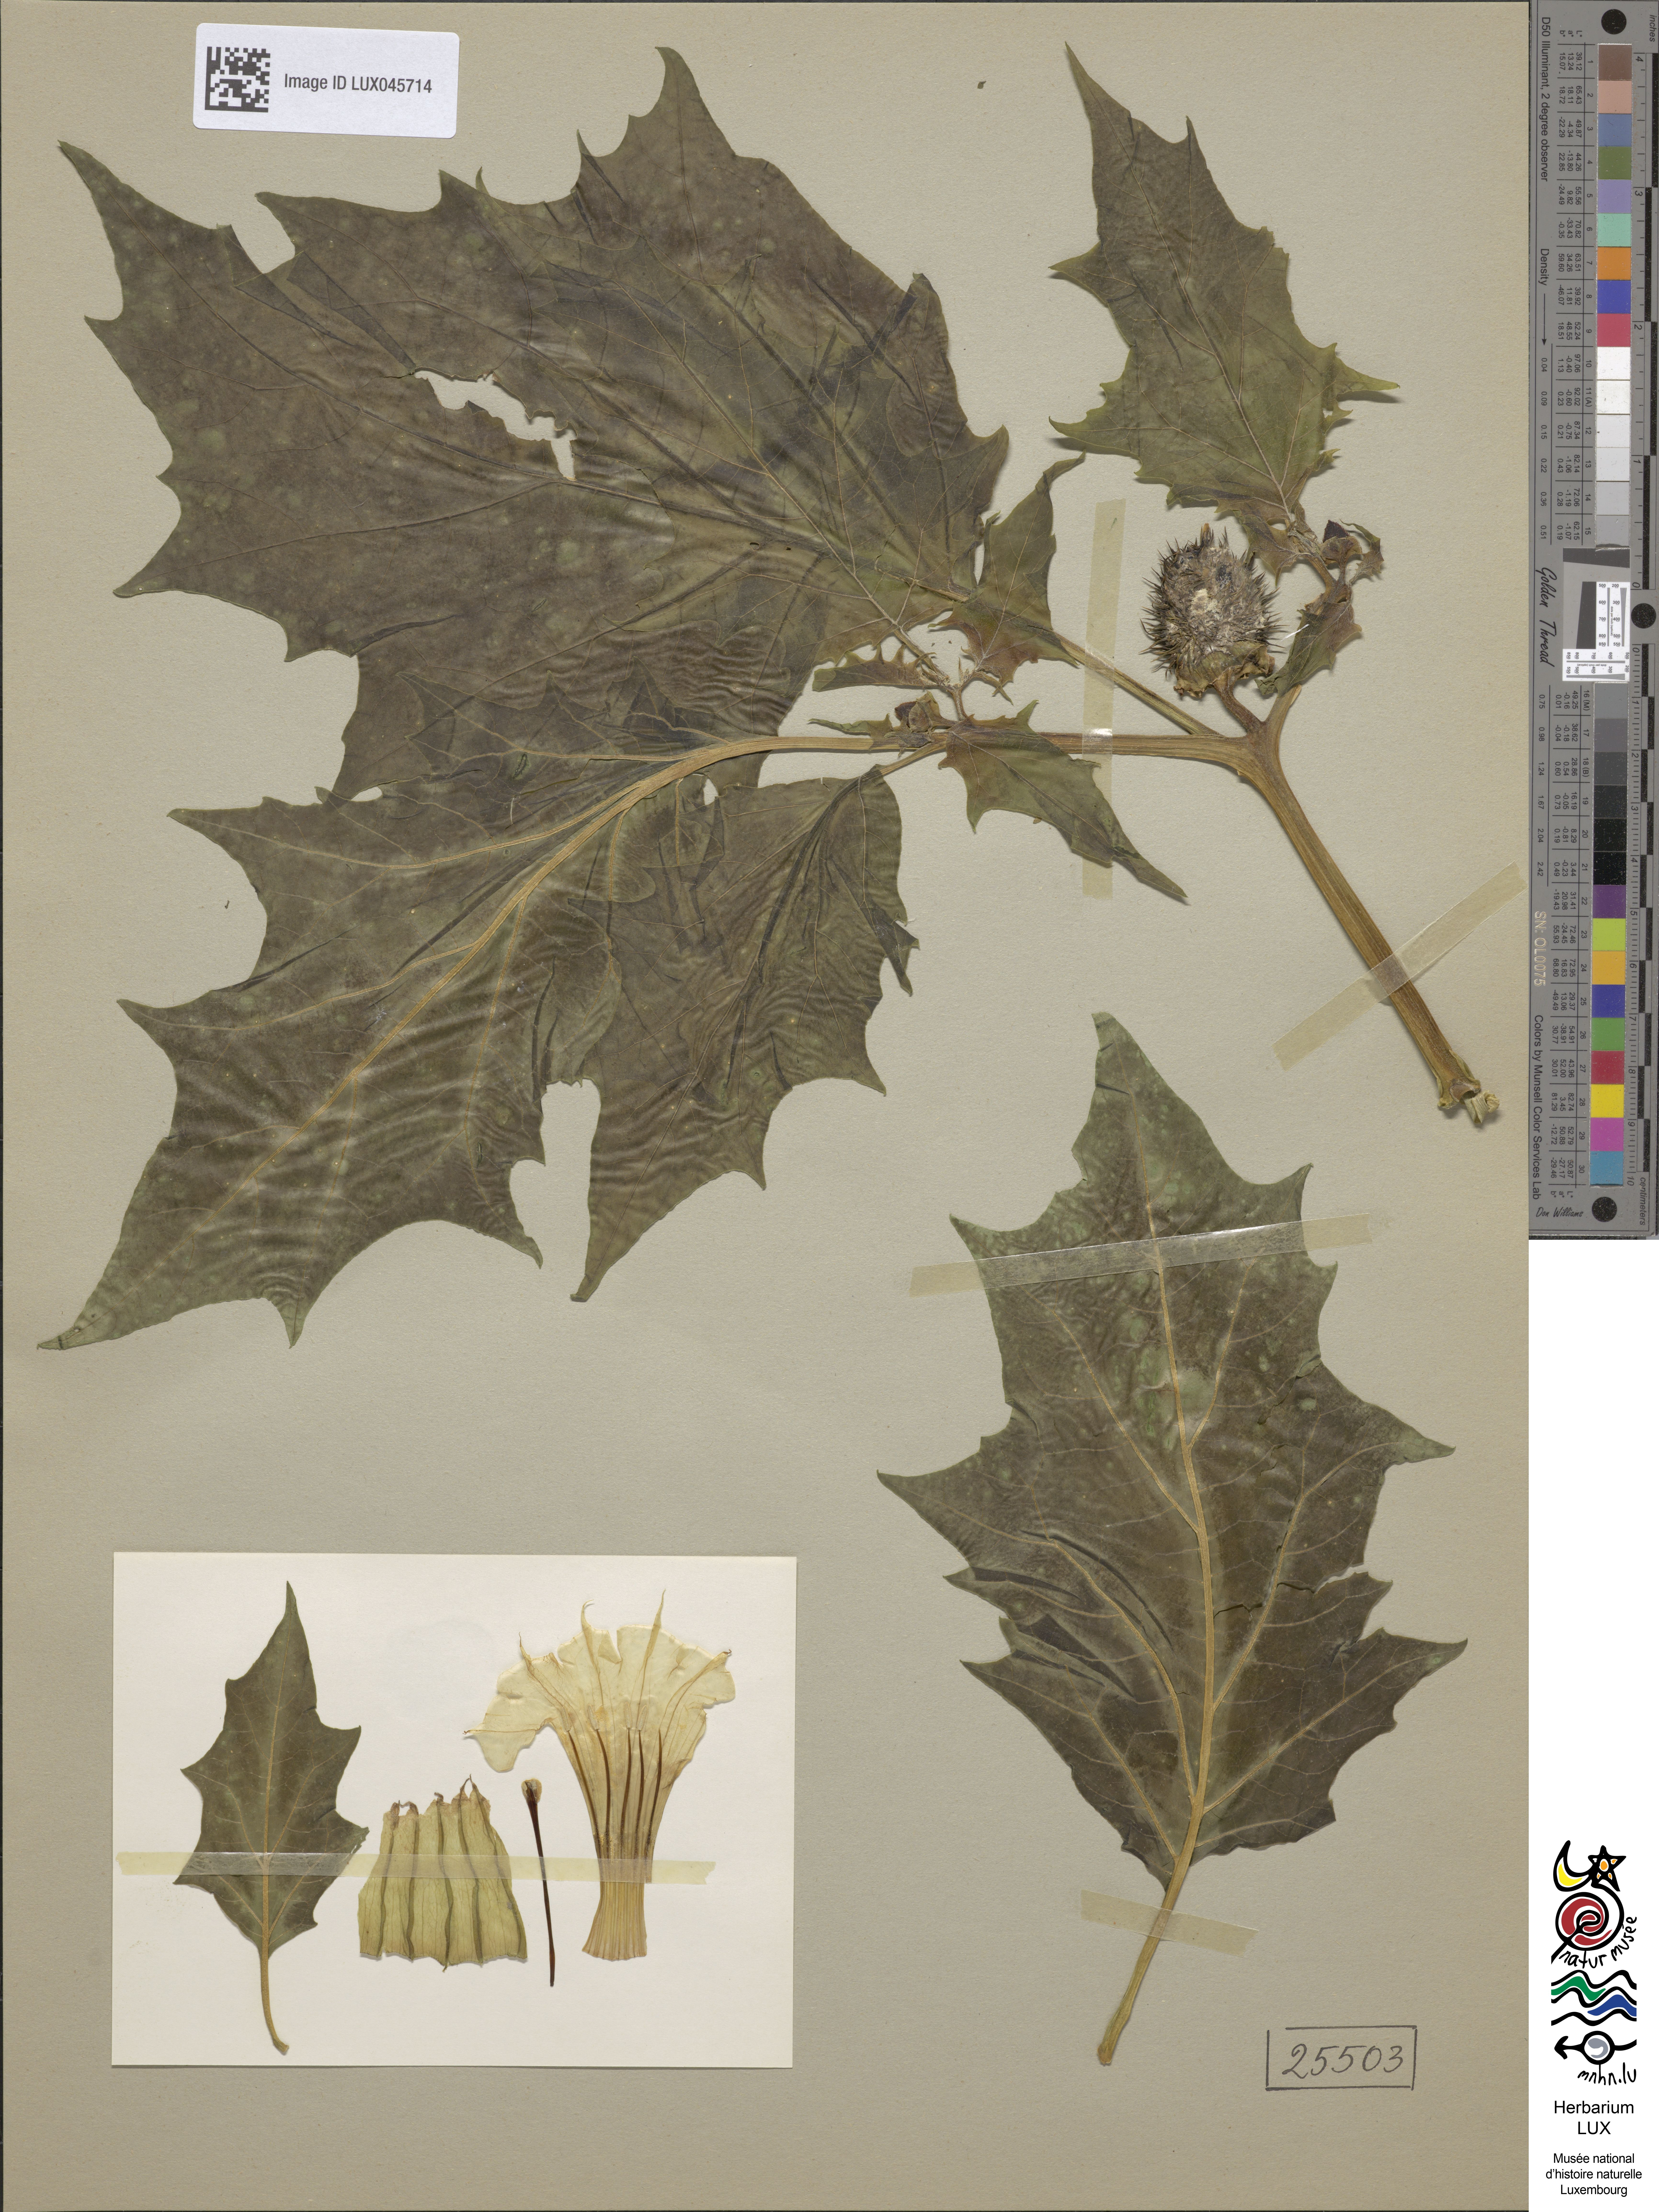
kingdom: Plantae
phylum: Tracheophyta
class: Magnoliopsida
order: Solanales
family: Solanaceae
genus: Datura
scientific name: Datura stramonium
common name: Thorn-apple
